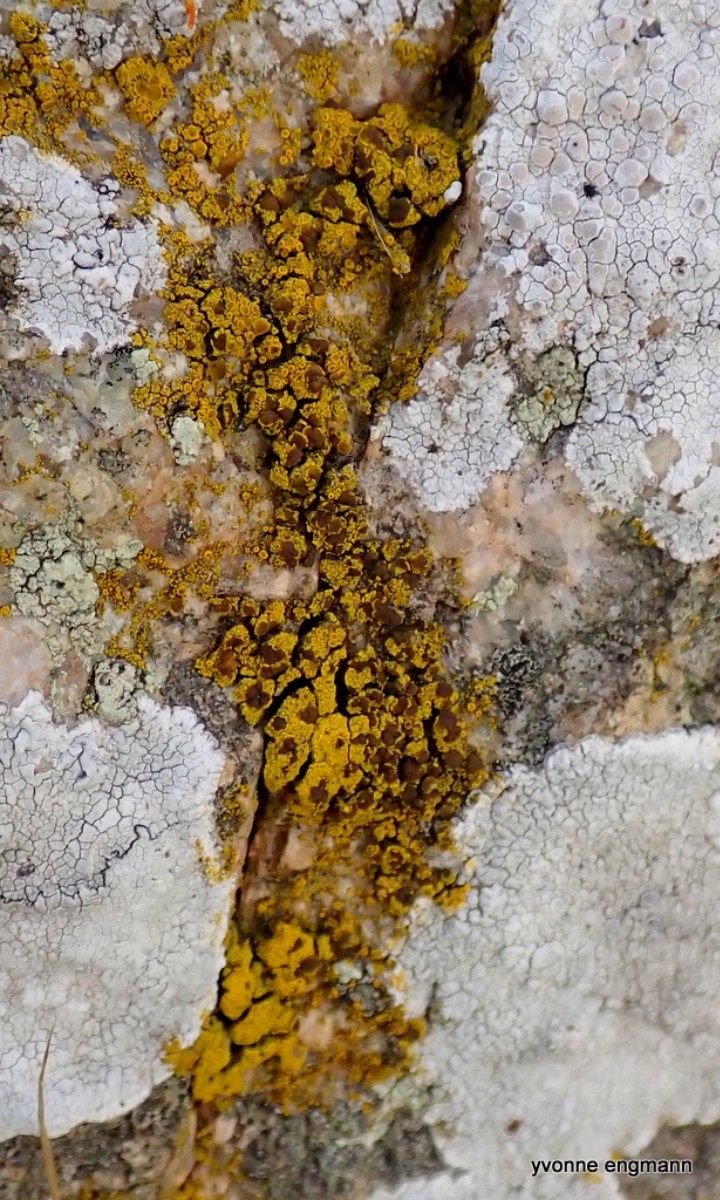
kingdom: Fungi
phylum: Ascomycota
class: Candelariomycetes
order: Candelariales
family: Candelariaceae
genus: Candelariella
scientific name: Candelariella vitellina
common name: almindelig æggeblommelav
